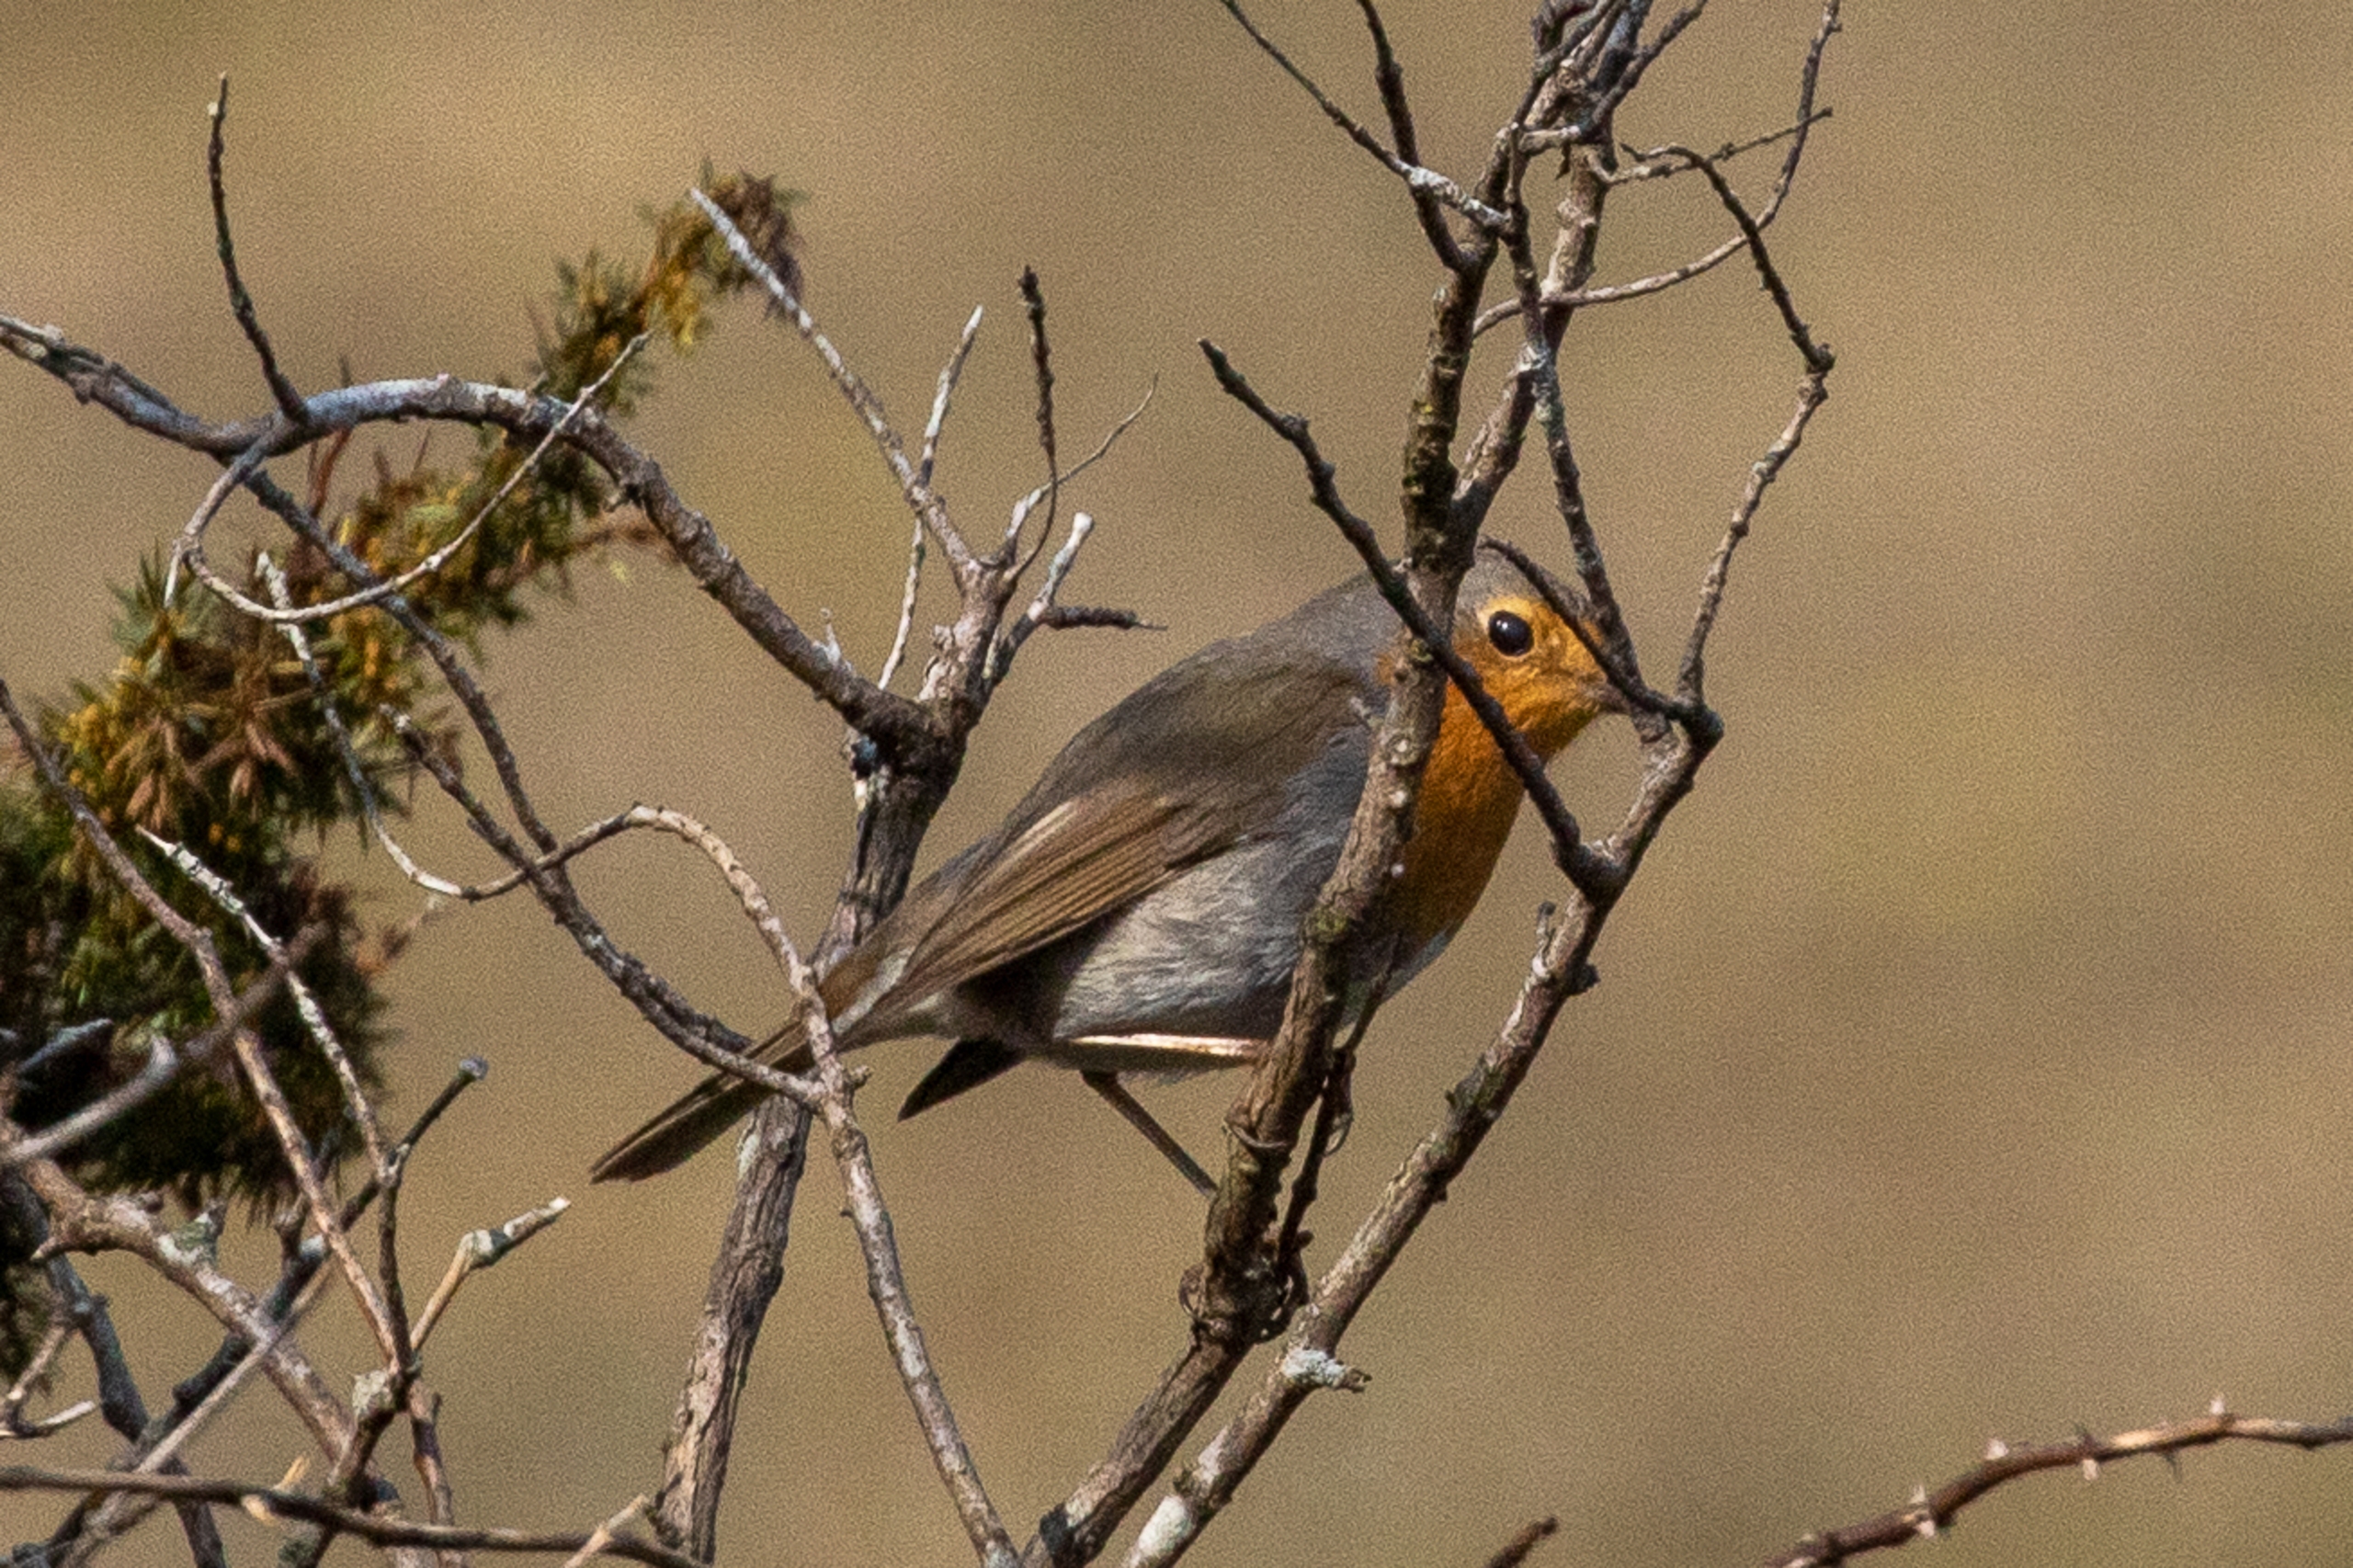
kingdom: Animalia
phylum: Chordata
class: Aves
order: Passeriformes
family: Muscicapidae
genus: Erithacus
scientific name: Erithacus rubecula
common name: Rødhals/rødkælk
